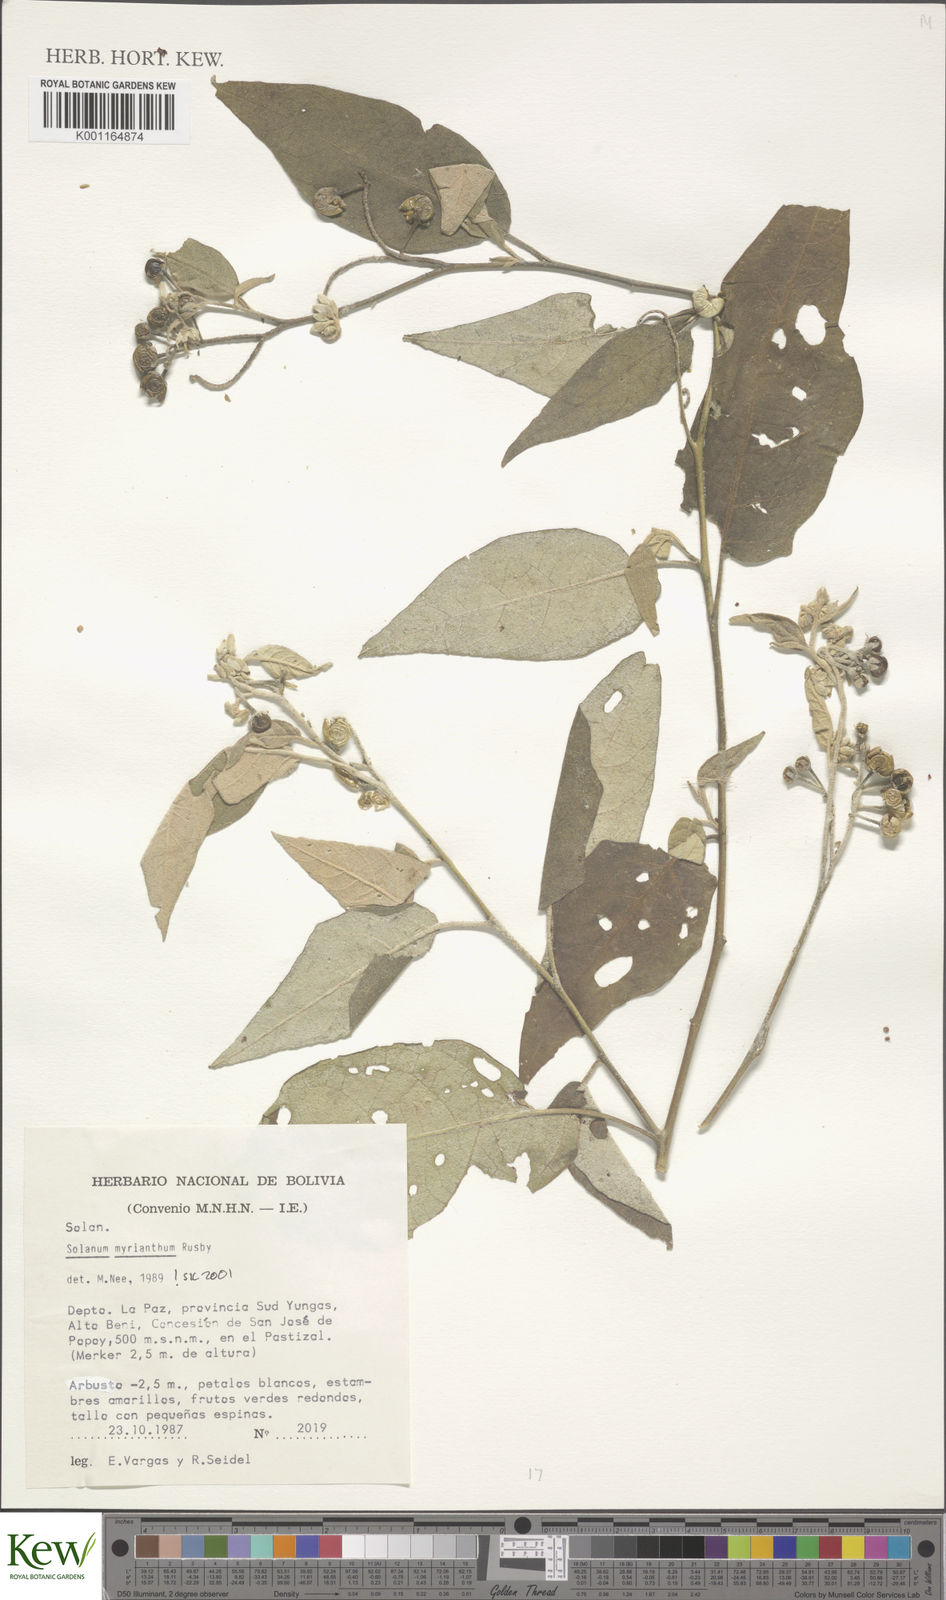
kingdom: Plantae
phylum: Tracheophyta
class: Magnoliopsida
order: Solanales
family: Solanaceae
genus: Solanum
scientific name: Solanum myriacanthum
